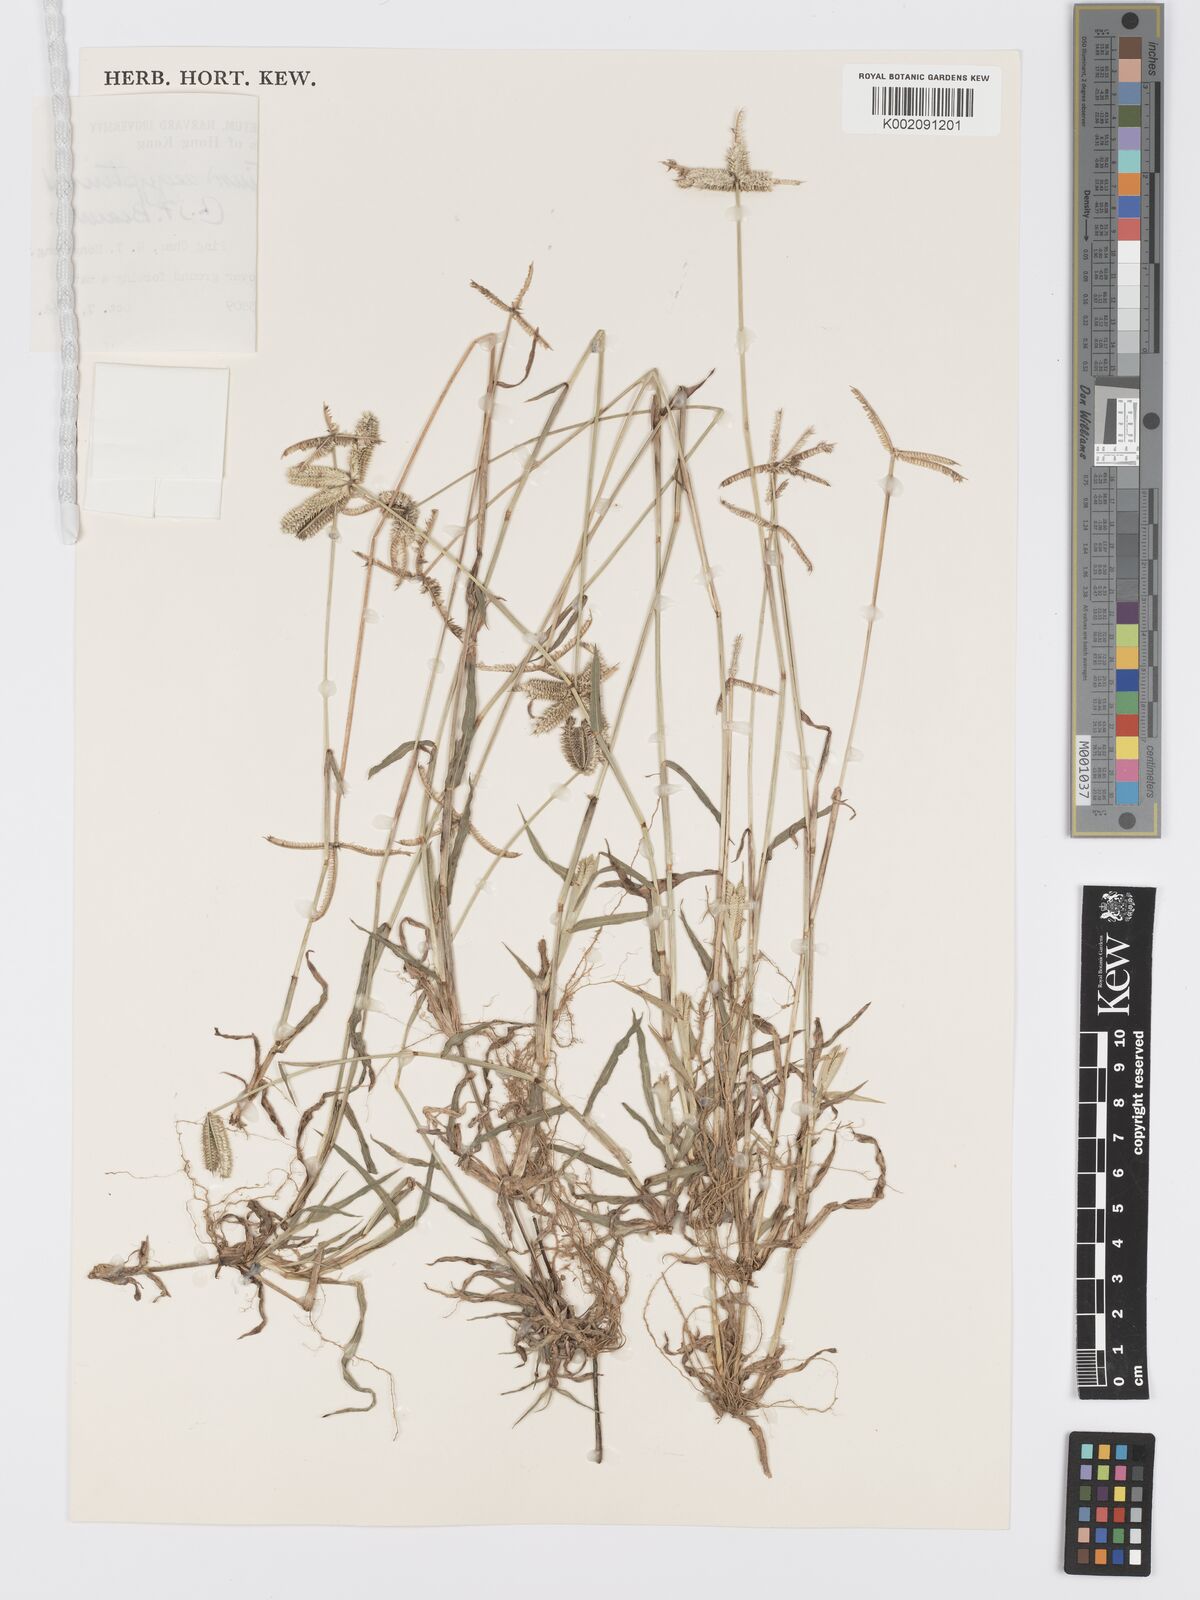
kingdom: Plantae
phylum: Tracheophyta
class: Liliopsida
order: Poales
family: Poaceae
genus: Dactyloctenium
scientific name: Dactyloctenium aegyptium
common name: Egyptian grass
